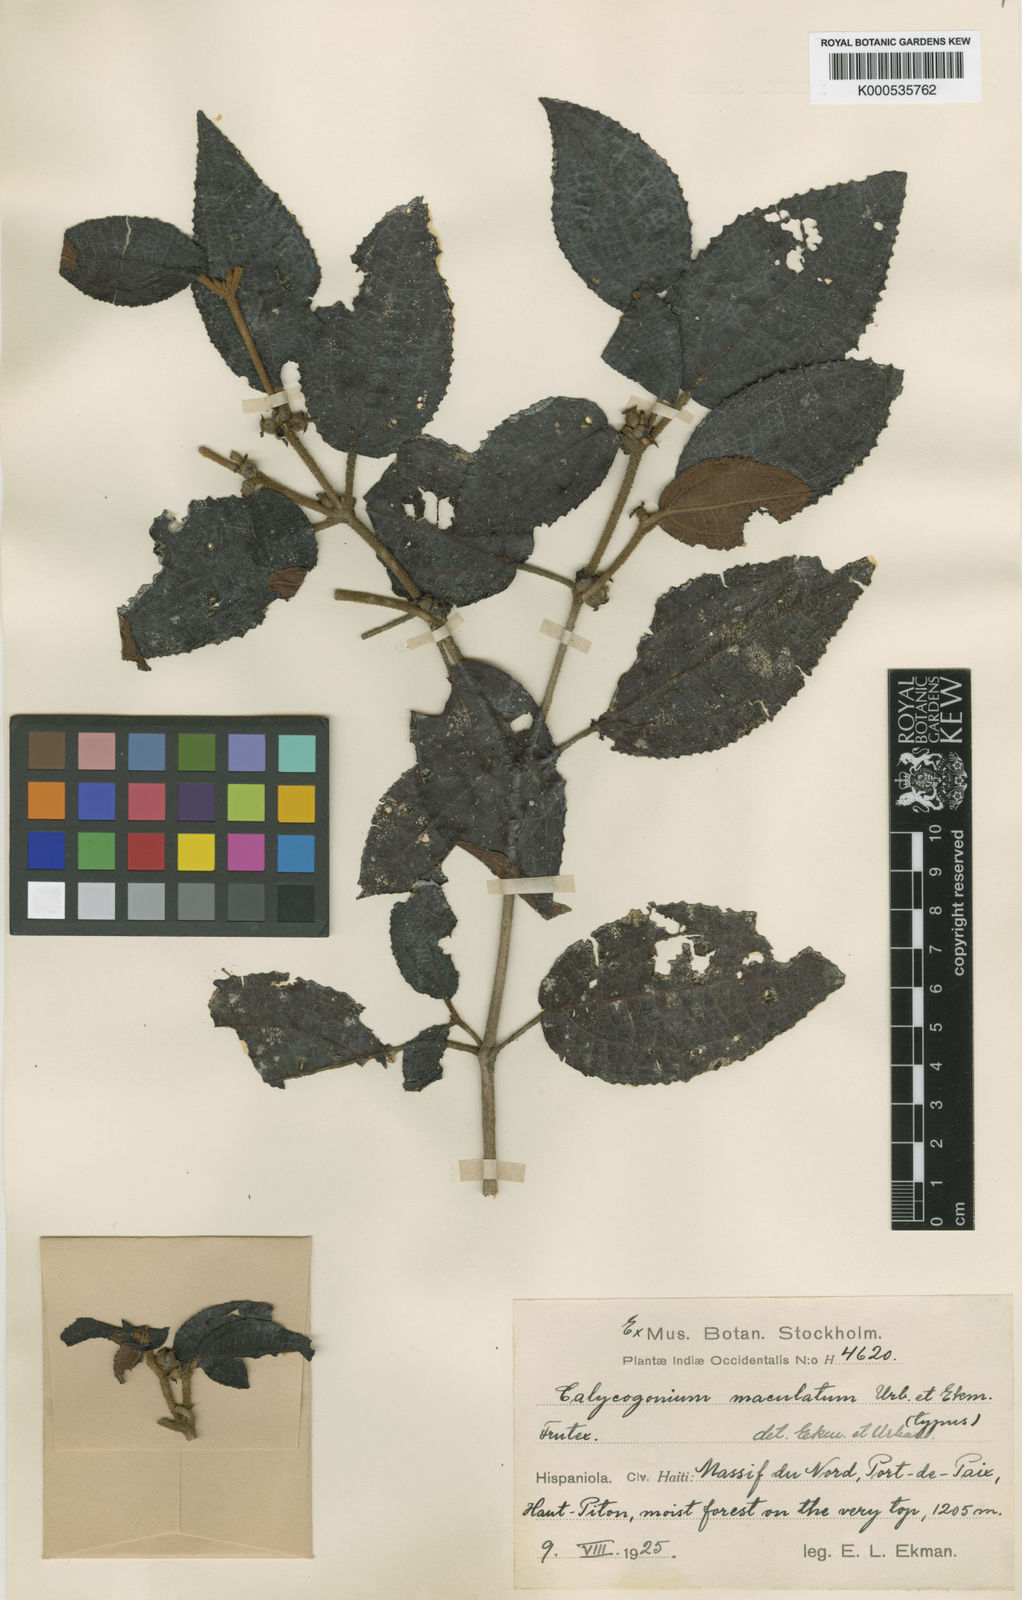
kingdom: Plantae
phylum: Tracheophyta
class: Magnoliopsida
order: Myrtales
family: Melastomataceae
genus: Miconia
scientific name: Miconia maculata
